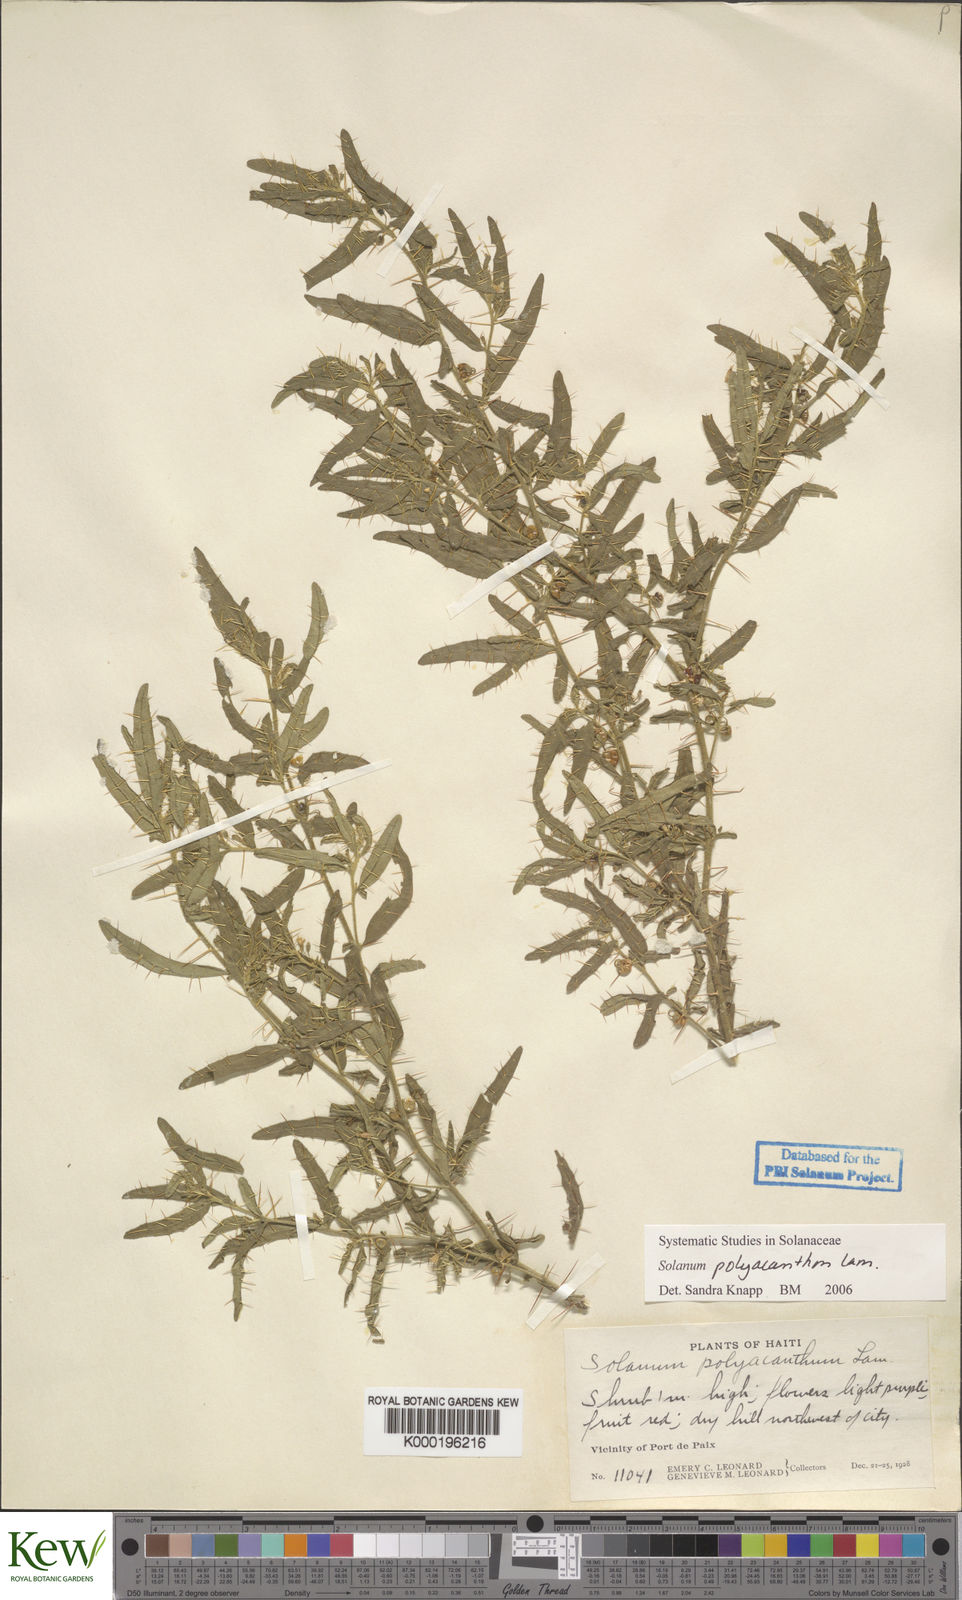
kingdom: Plantae
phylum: Tracheophyta
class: Magnoliopsida
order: Solanales
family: Solanaceae
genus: Solanum
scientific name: Solanum polyacanthos
